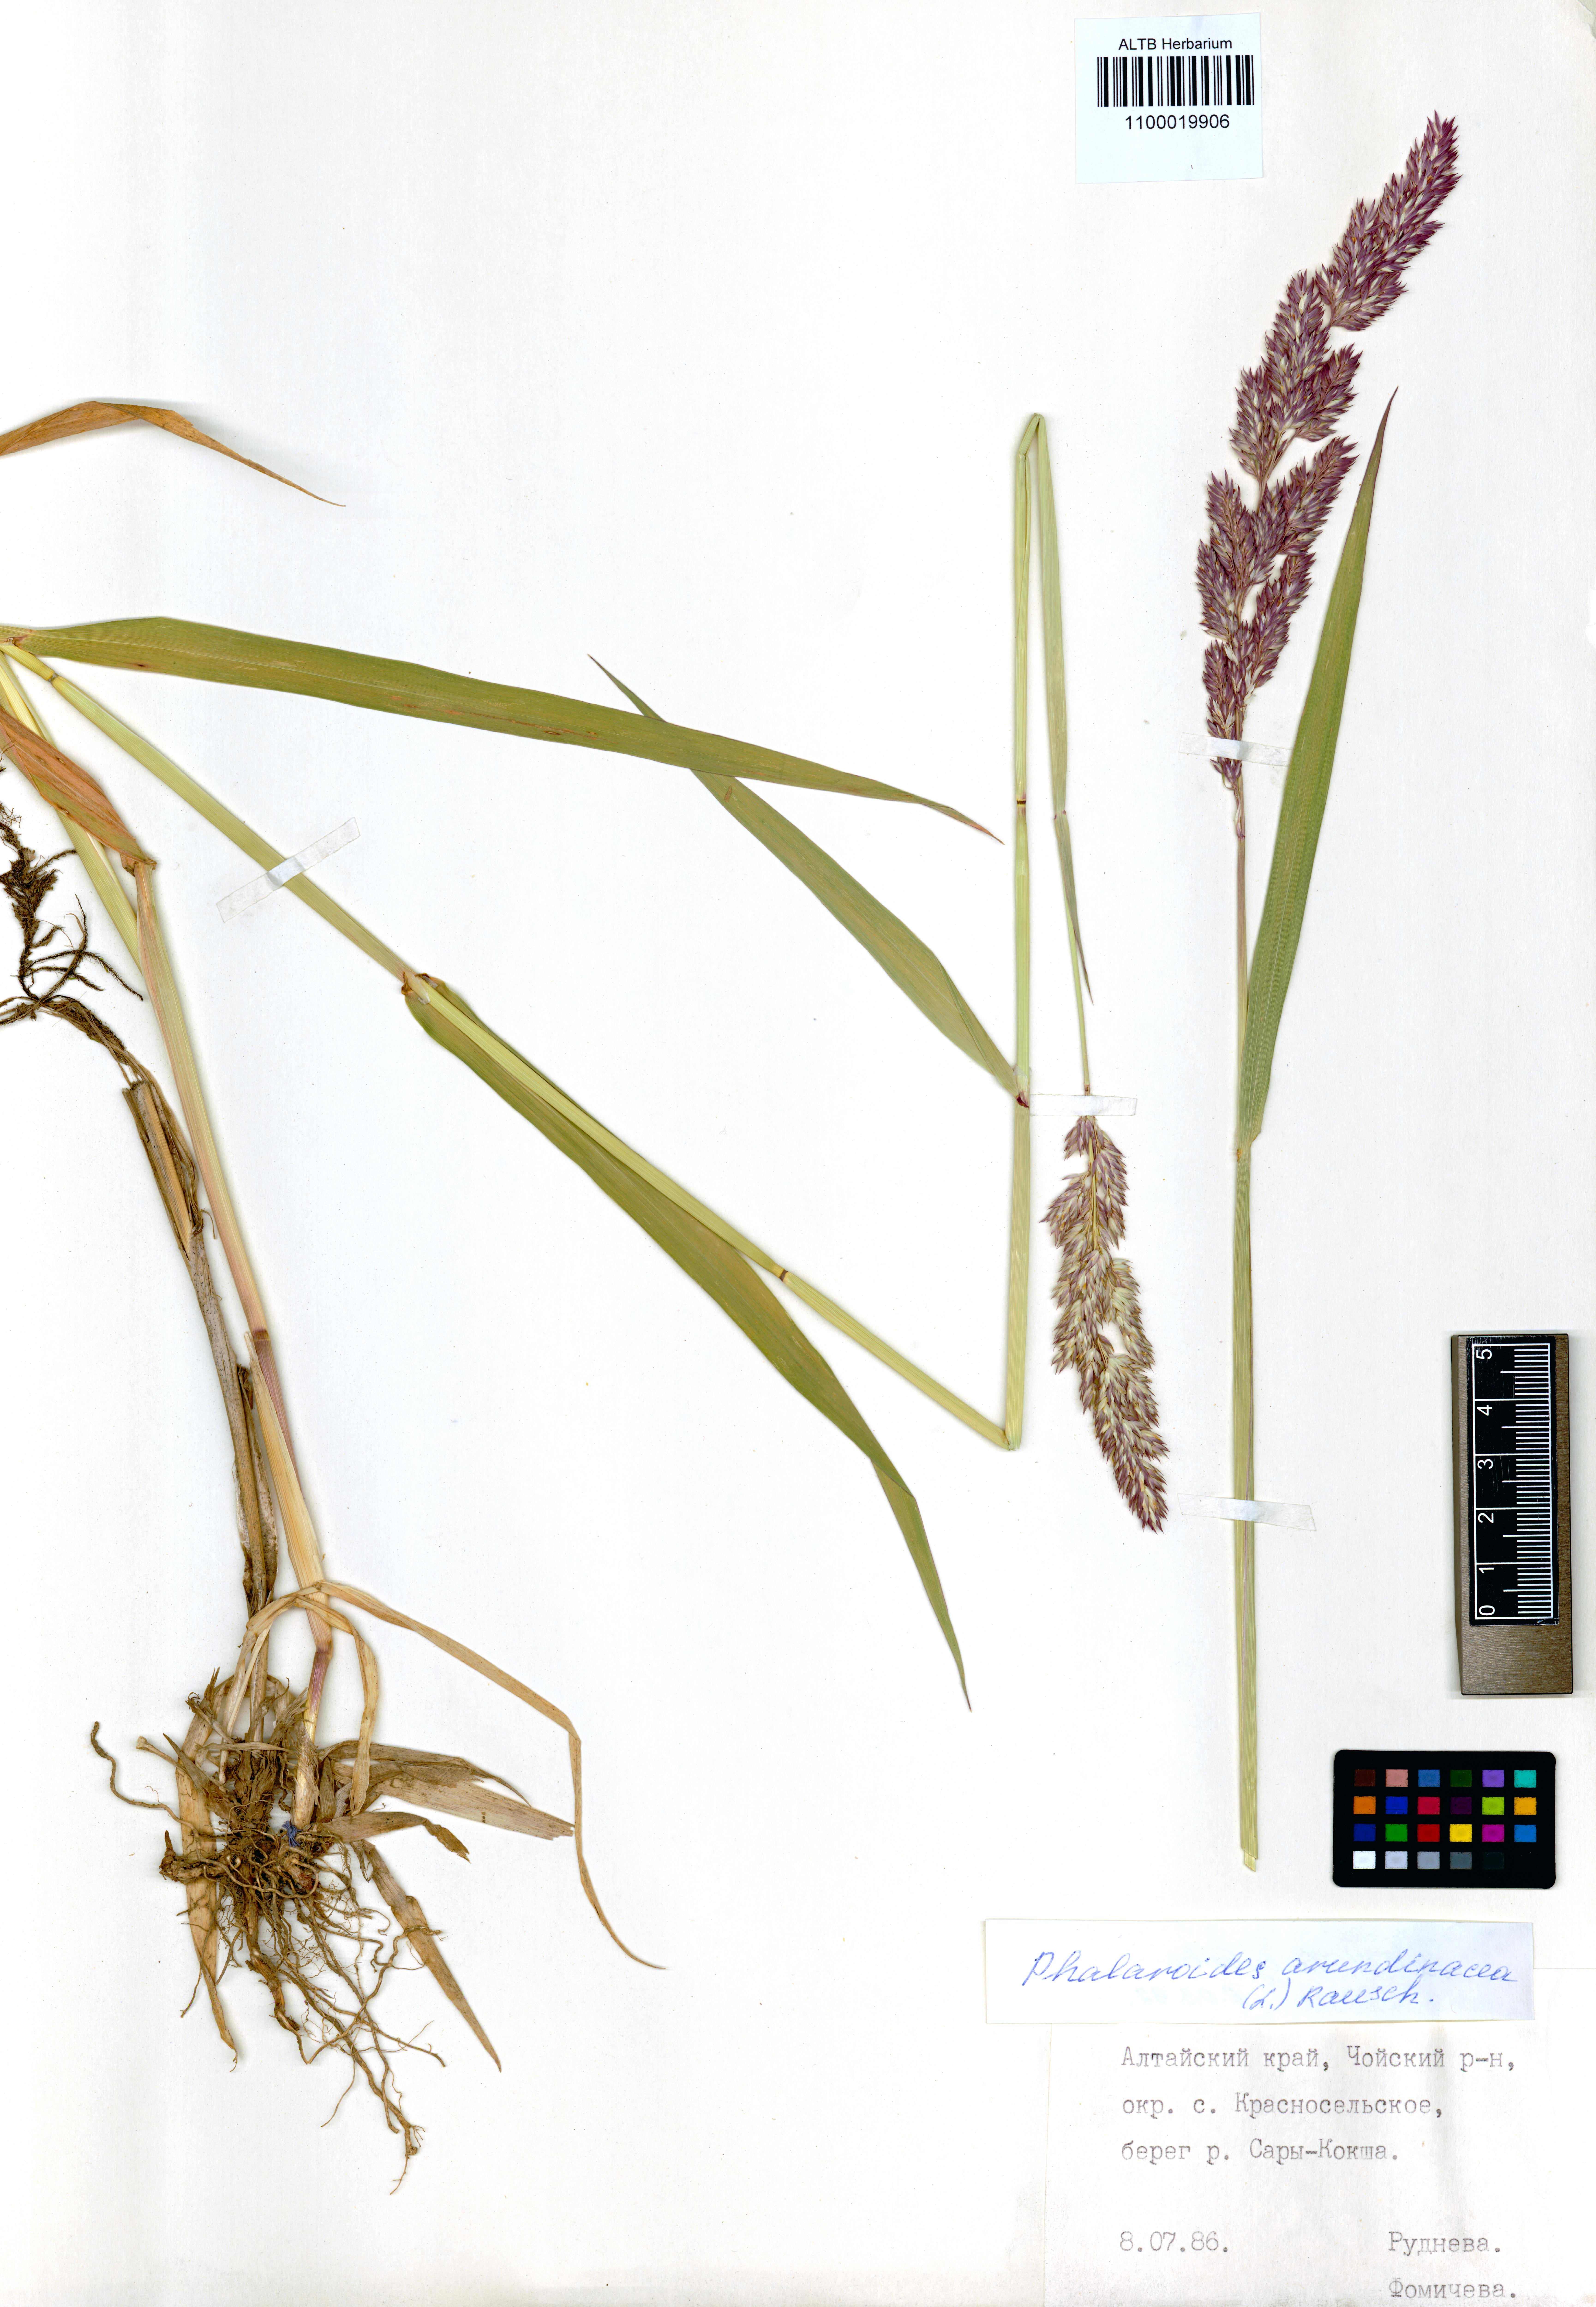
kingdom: Plantae
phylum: Tracheophyta
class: Liliopsida
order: Poales
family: Poaceae
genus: Phalaris
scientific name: Phalaris arundinacea
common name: Reed canary-grass
